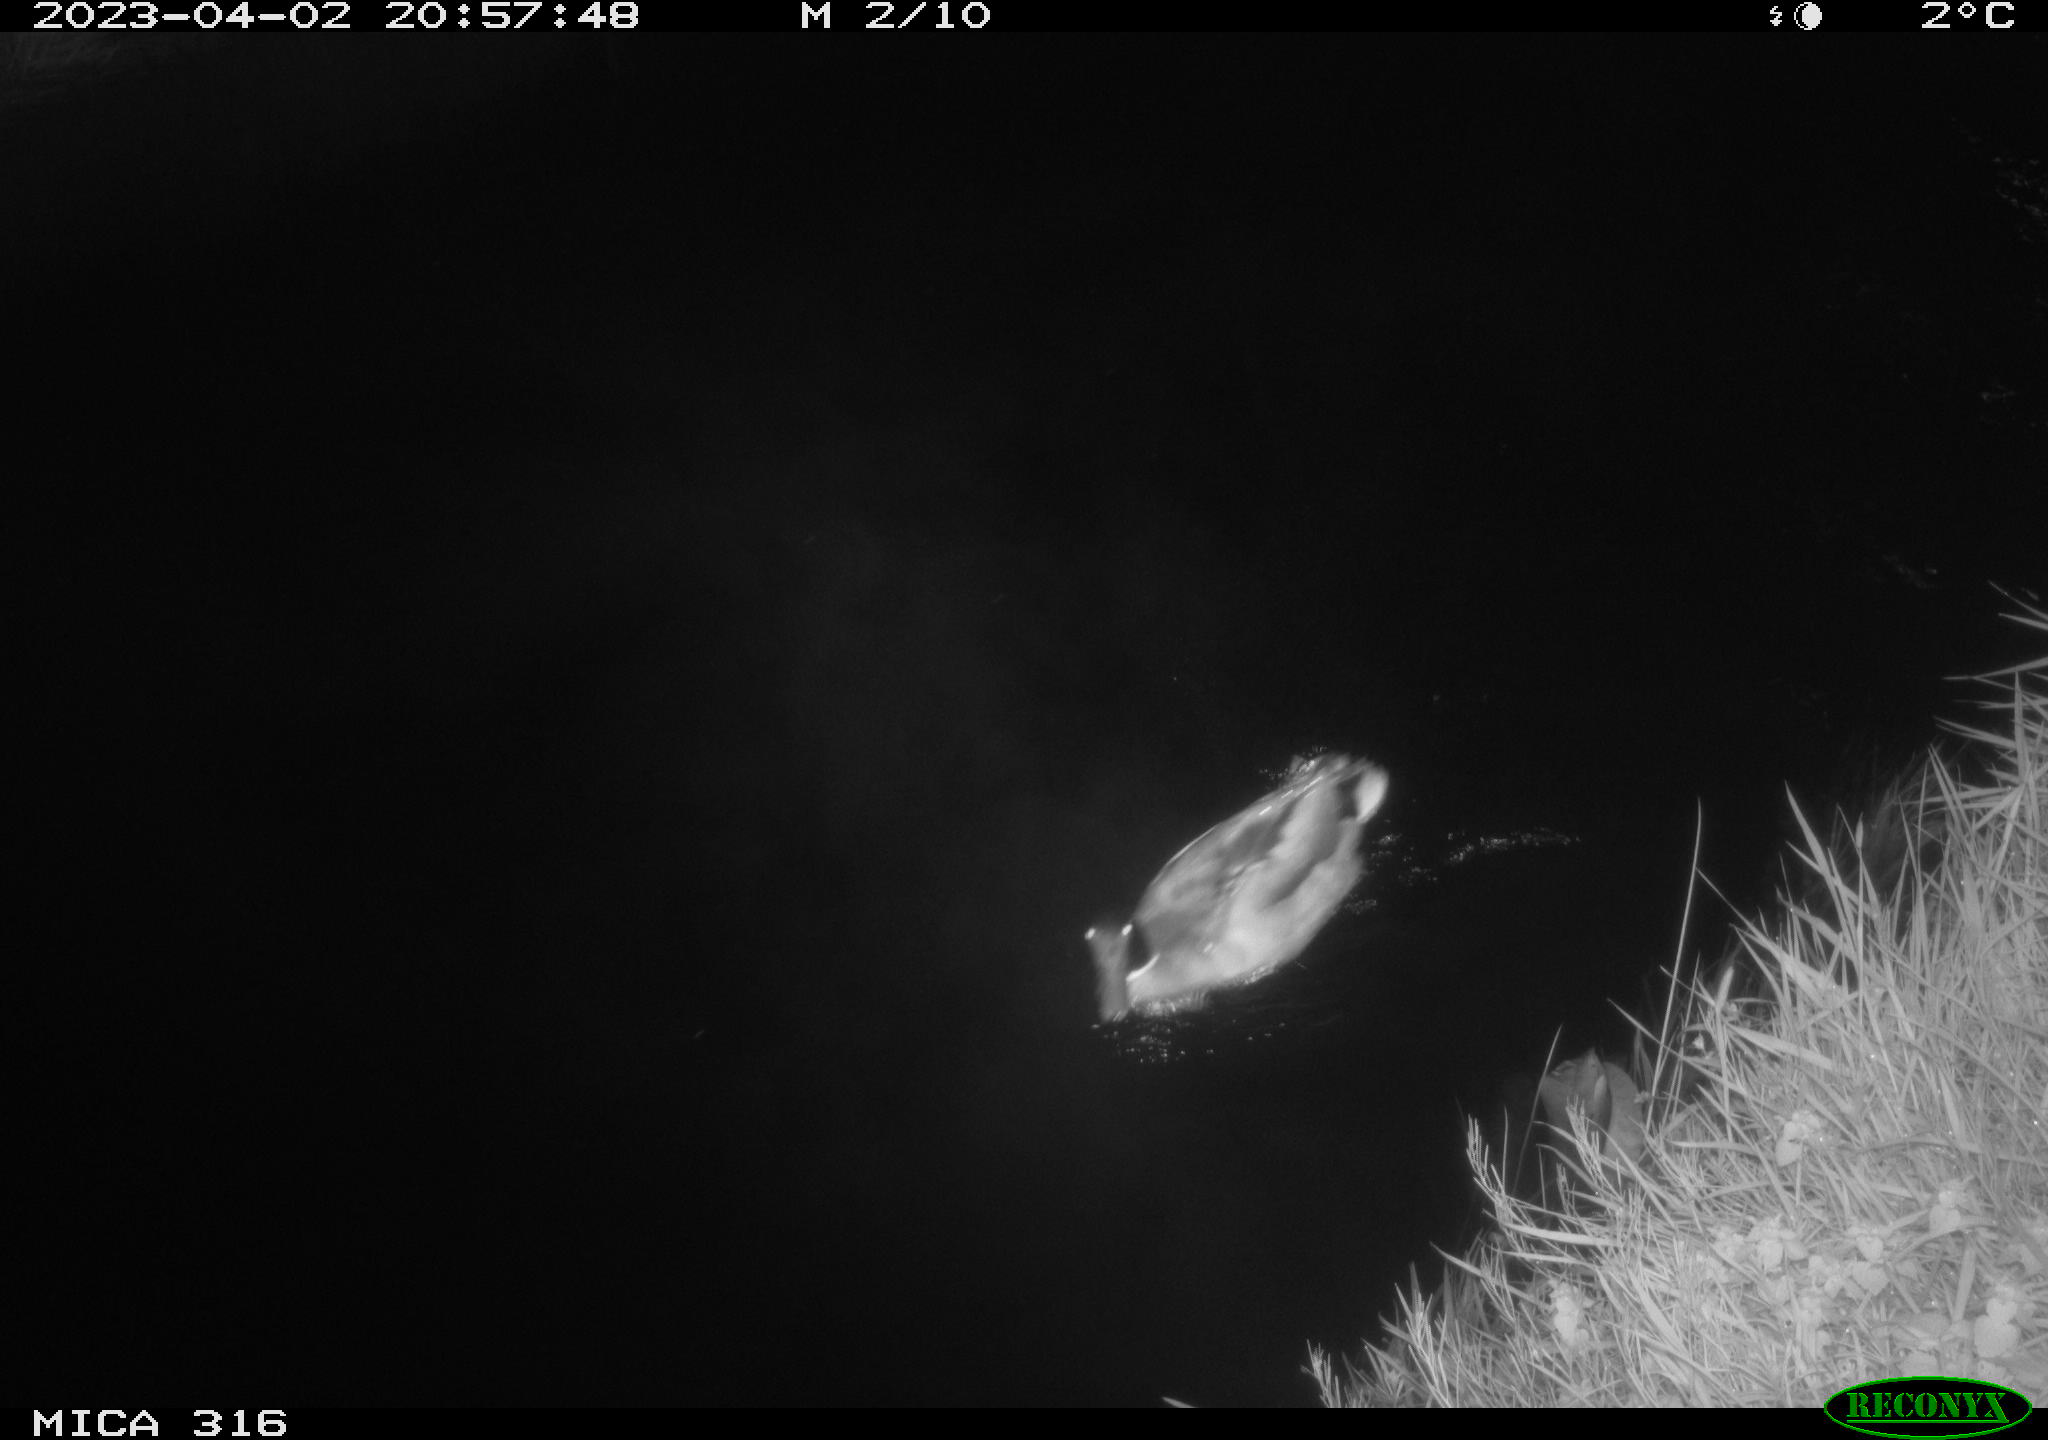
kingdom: Animalia
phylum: Chordata
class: Aves
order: Anseriformes
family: Anatidae
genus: Anas
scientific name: Anas
